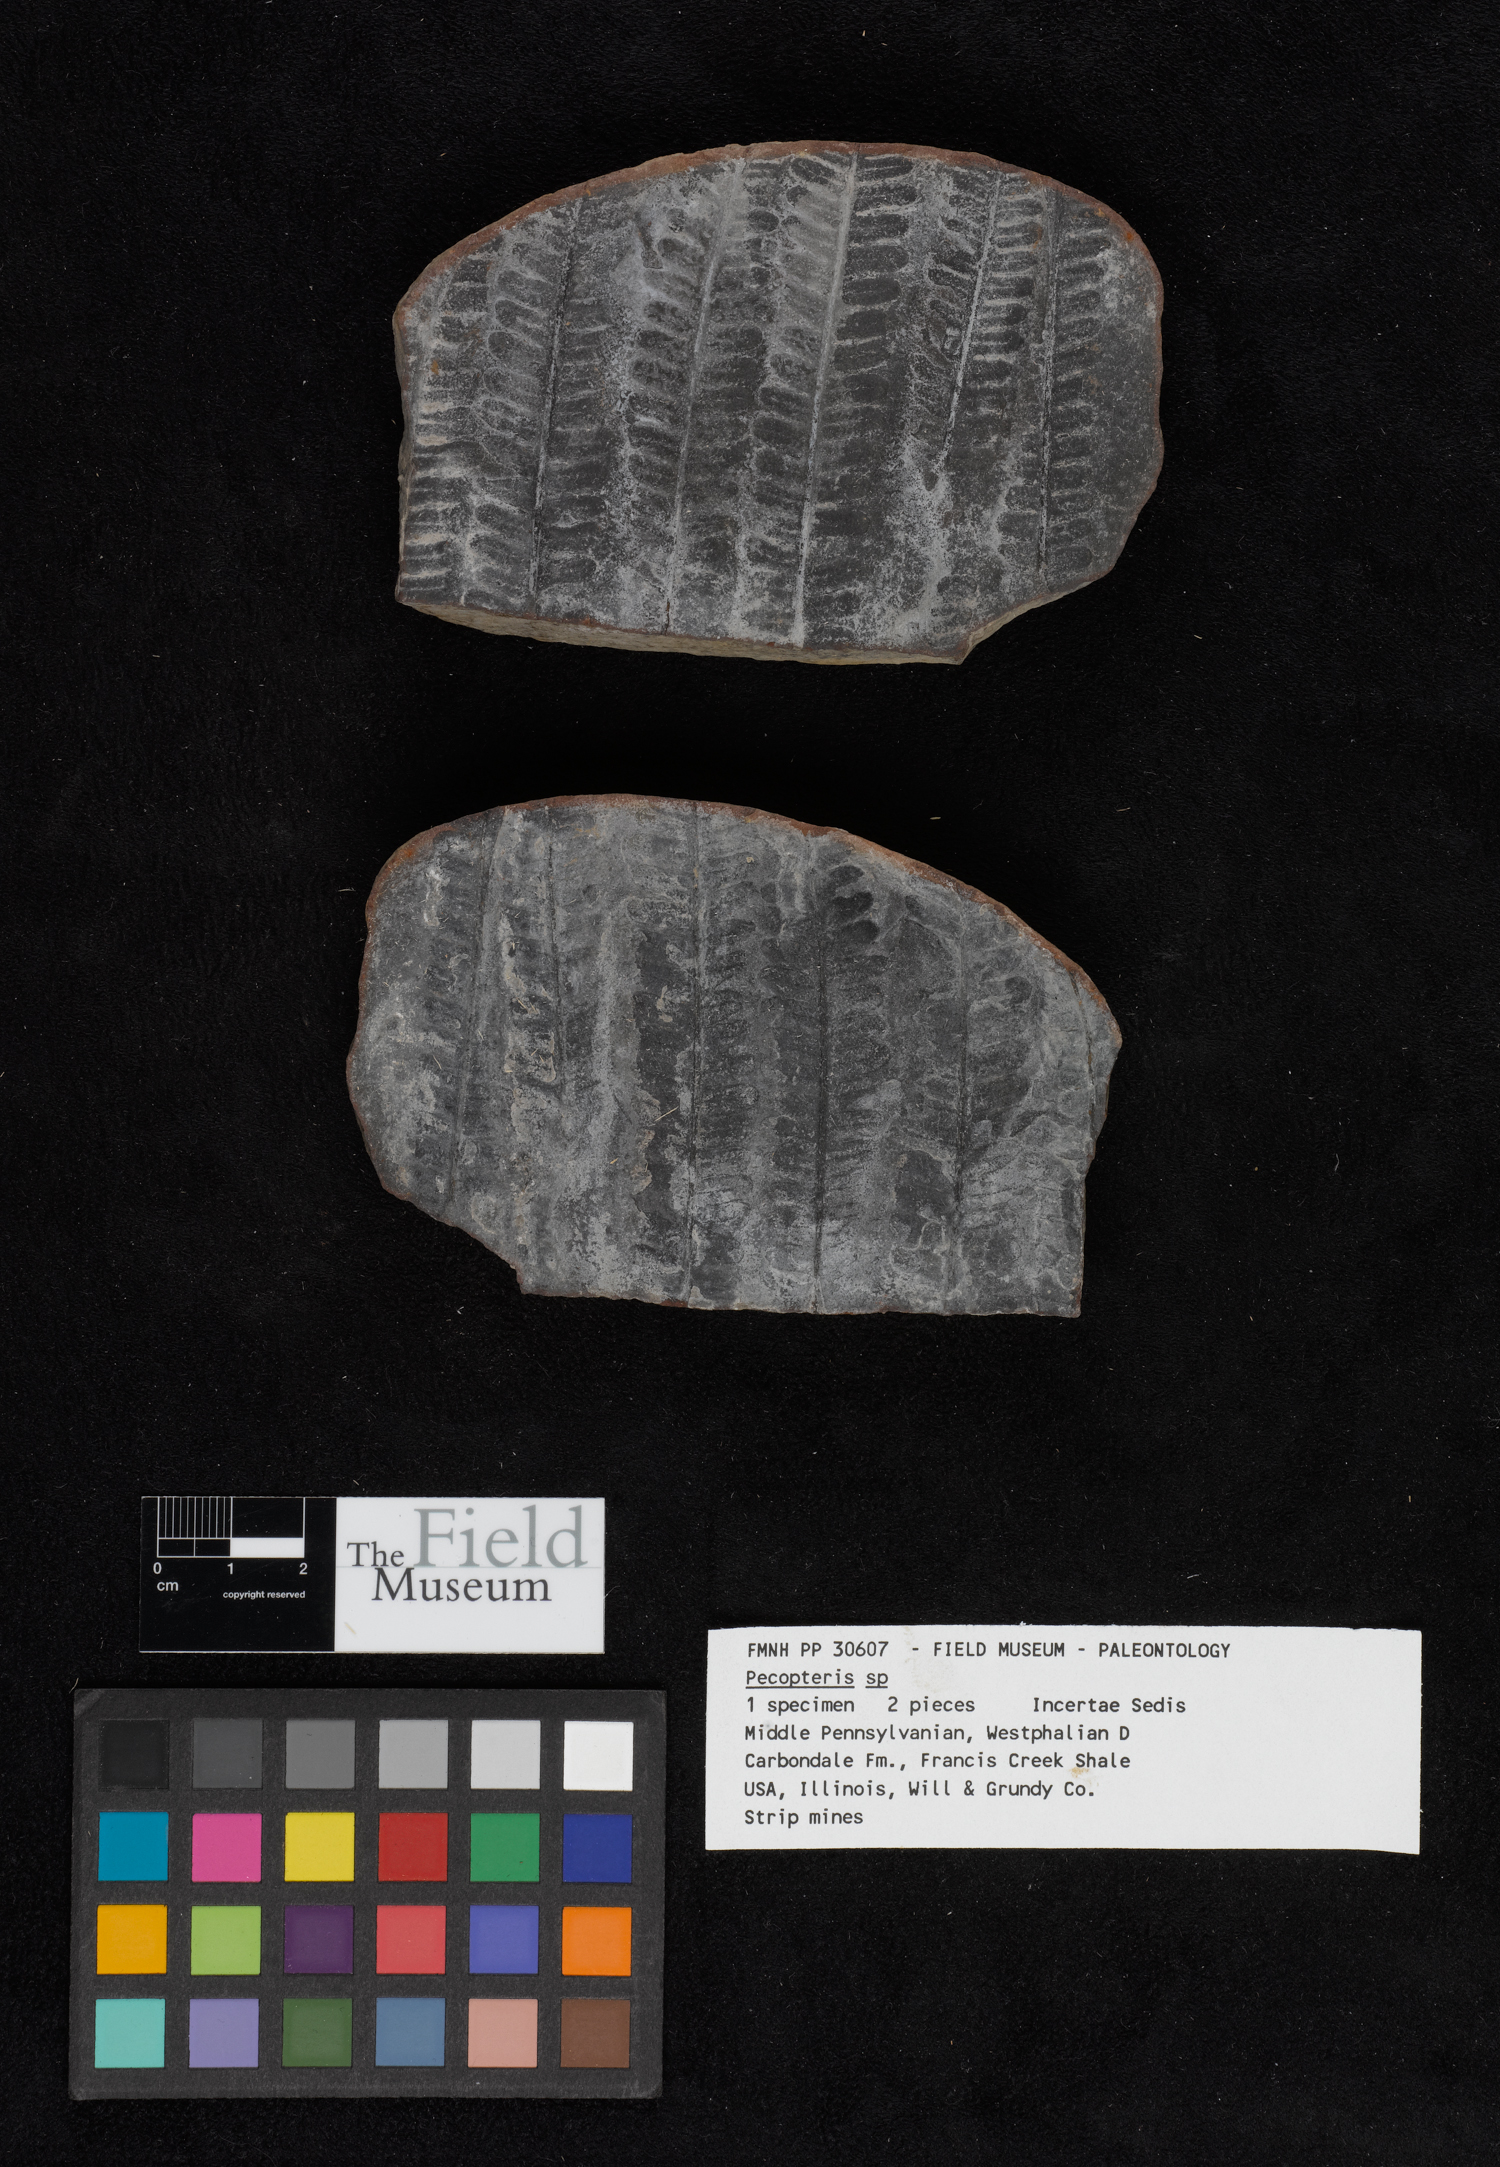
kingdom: Plantae
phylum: Tracheophyta
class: Polypodiopsida
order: Marattiales
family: Asterothecaceae
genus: Pecopteris
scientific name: Pecopteris
